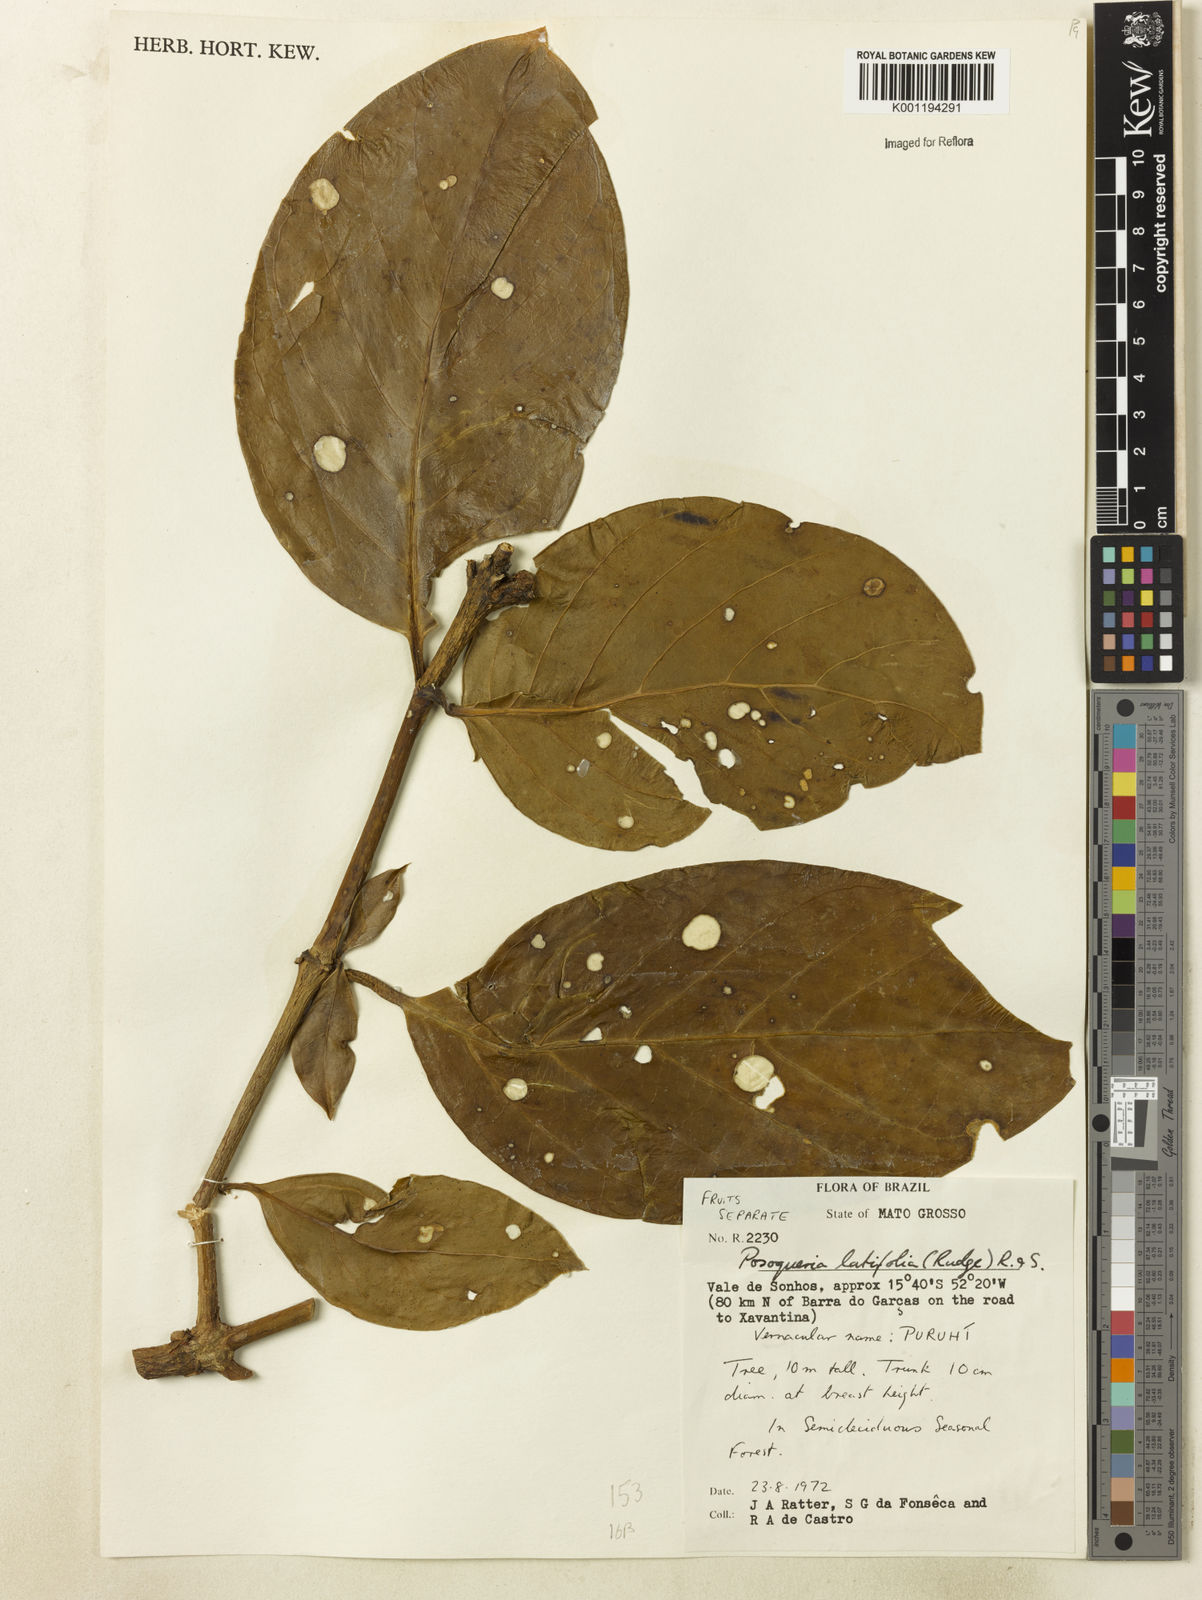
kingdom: Plantae
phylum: Tracheophyta
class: Magnoliopsida
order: Gentianales
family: Rubiaceae
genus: Posoqueria
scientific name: Posoqueria latifolia
